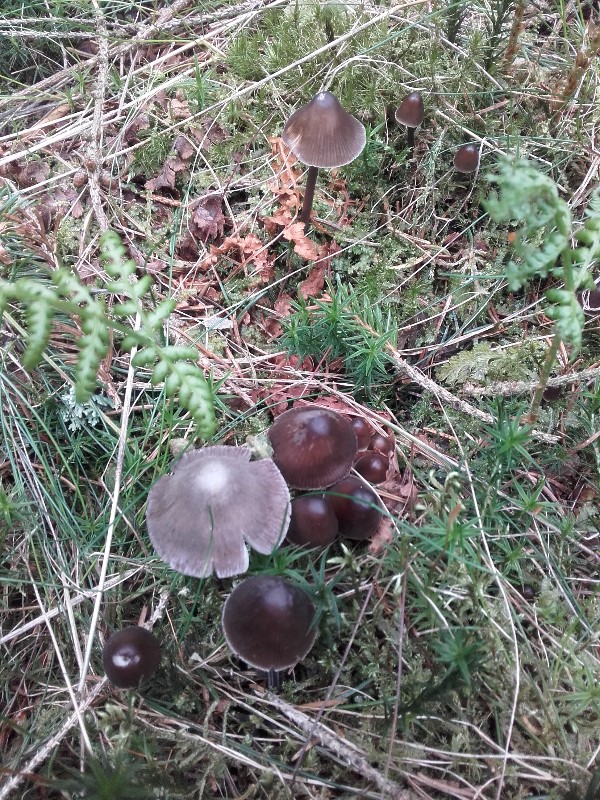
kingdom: Fungi
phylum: Basidiomycota
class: Agaricomycetes
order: Agaricales
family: Mycenaceae
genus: Mycena
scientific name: Mycena silvae-nigrae
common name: tidlig huesvamp
